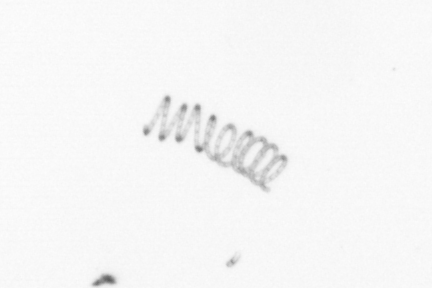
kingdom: Chromista
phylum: Ochrophyta
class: Bacillariophyceae
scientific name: Bacillariophyceae
